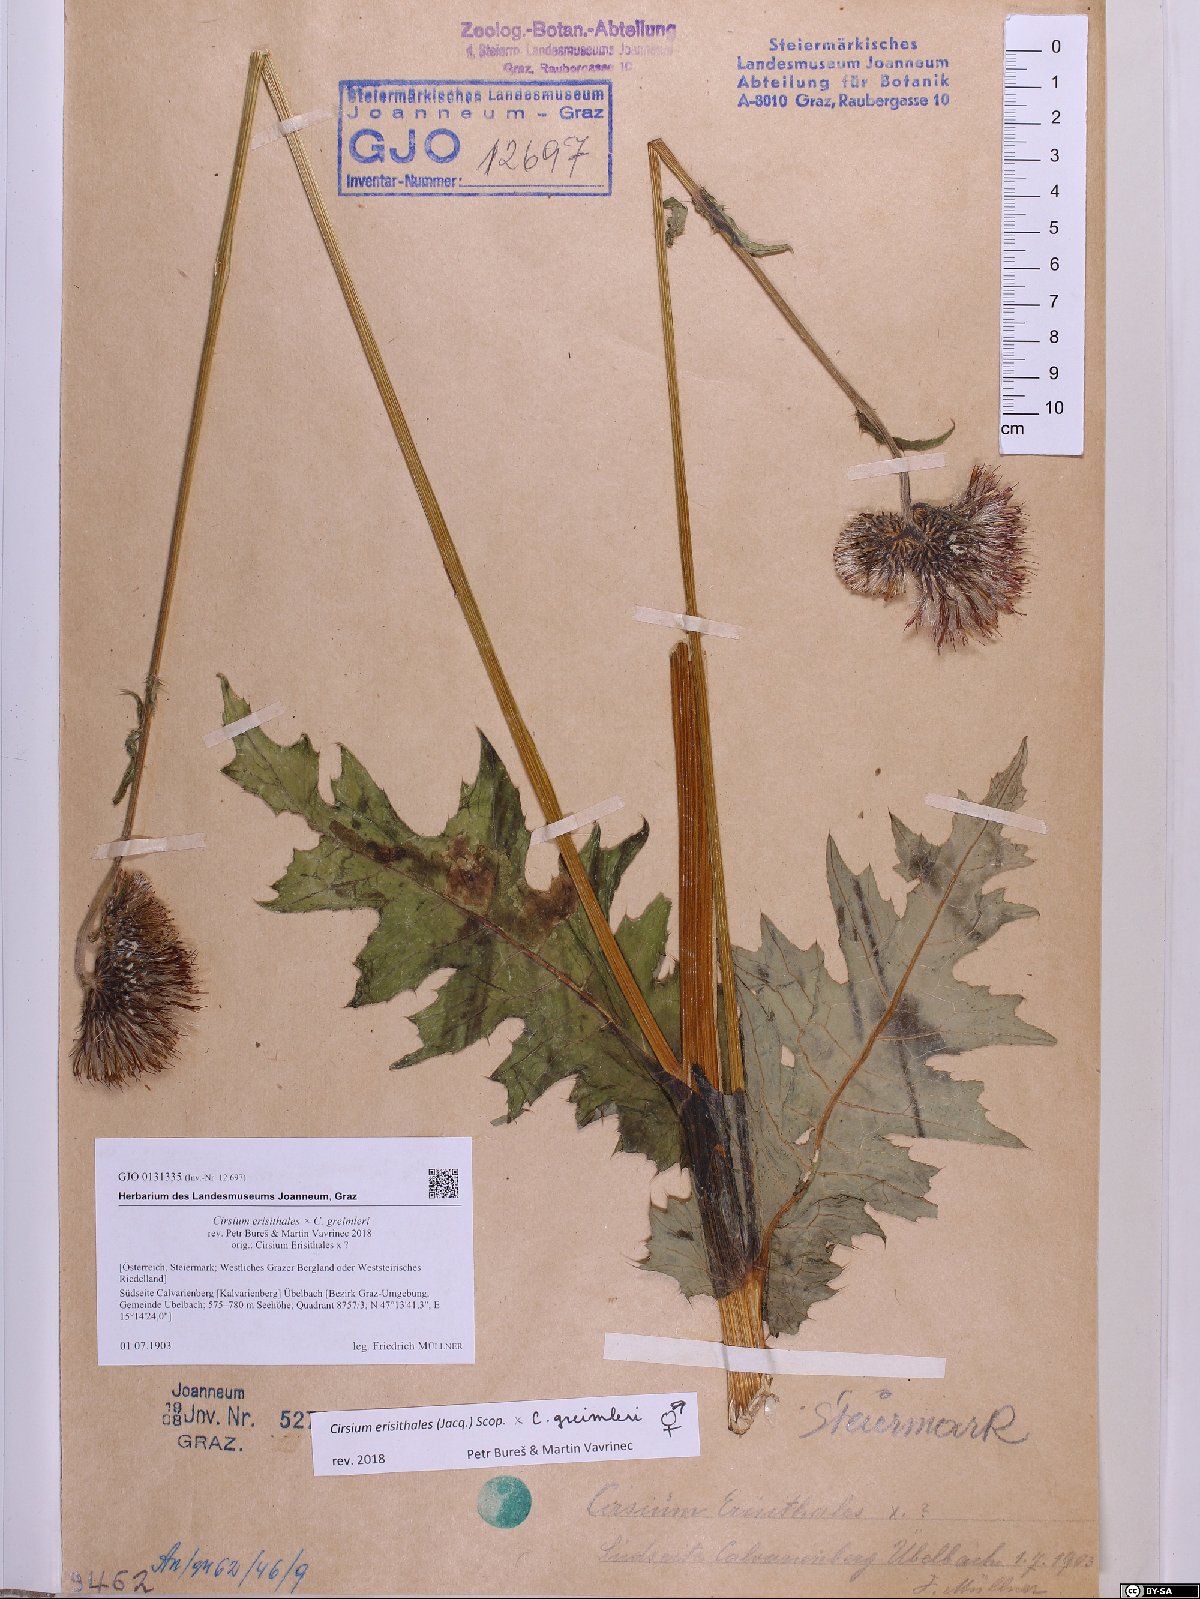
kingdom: Plantae
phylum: Tracheophyta
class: Magnoliopsida
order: Asterales
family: Asteraceae
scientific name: Asteraceae
